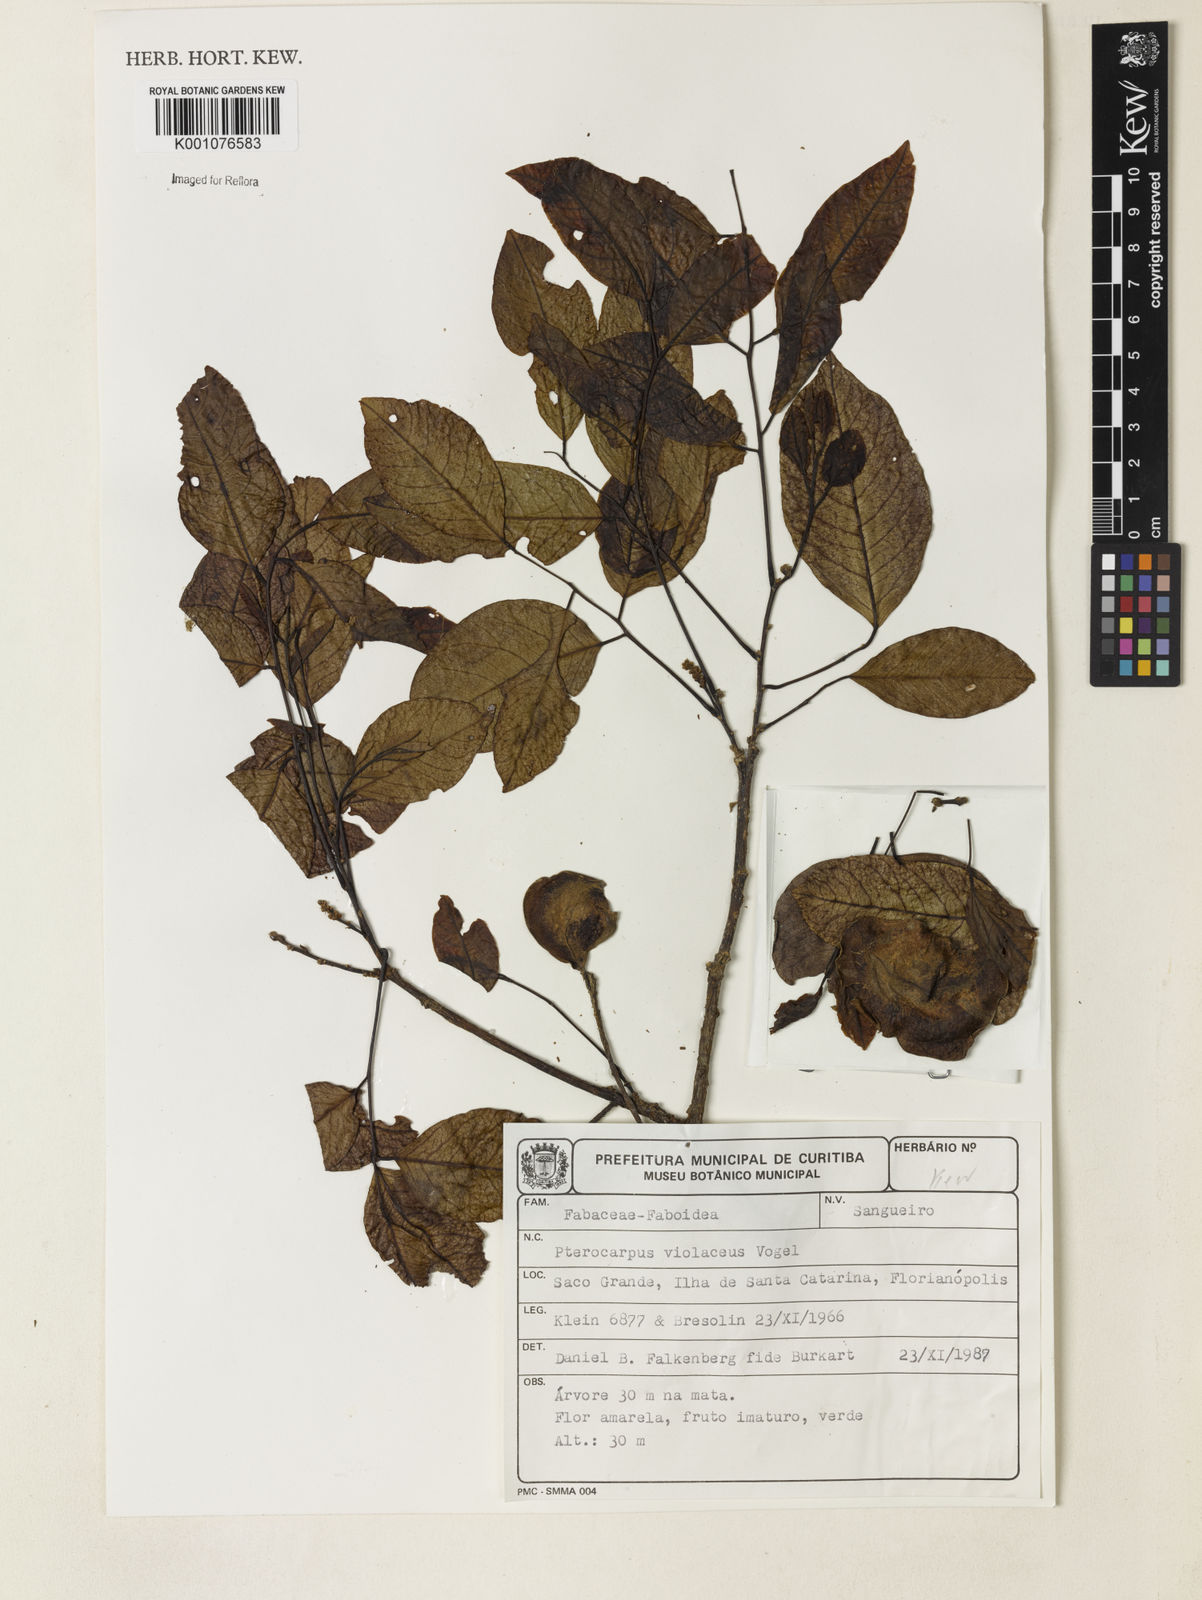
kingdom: Plantae
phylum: Tracheophyta
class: Magnoliopsida
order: Fabales
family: Fabaceae
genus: Pterocarpus
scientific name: Pterocarpus rohrii
